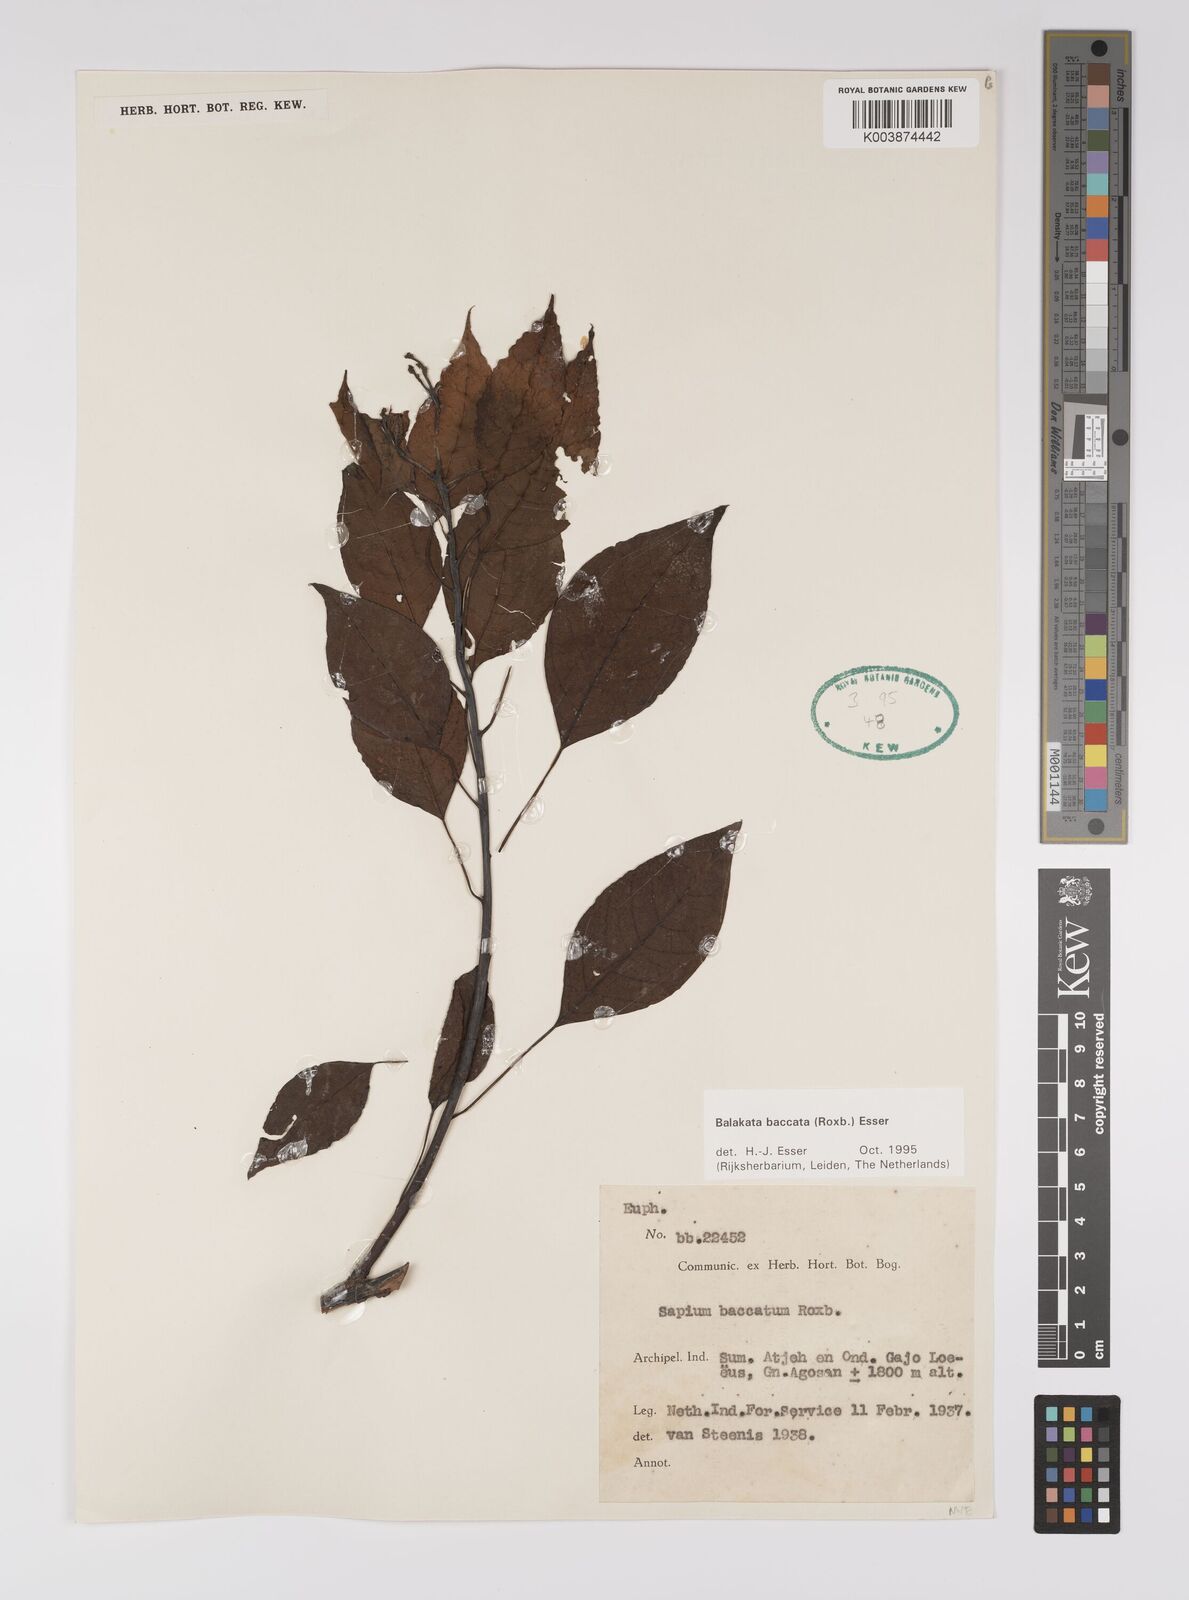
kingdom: Plantae
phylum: Tracheophyta
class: Magnoliopsida
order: Malpighiales
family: Euphorbiaceae
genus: Balakata
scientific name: Balakata baccata
